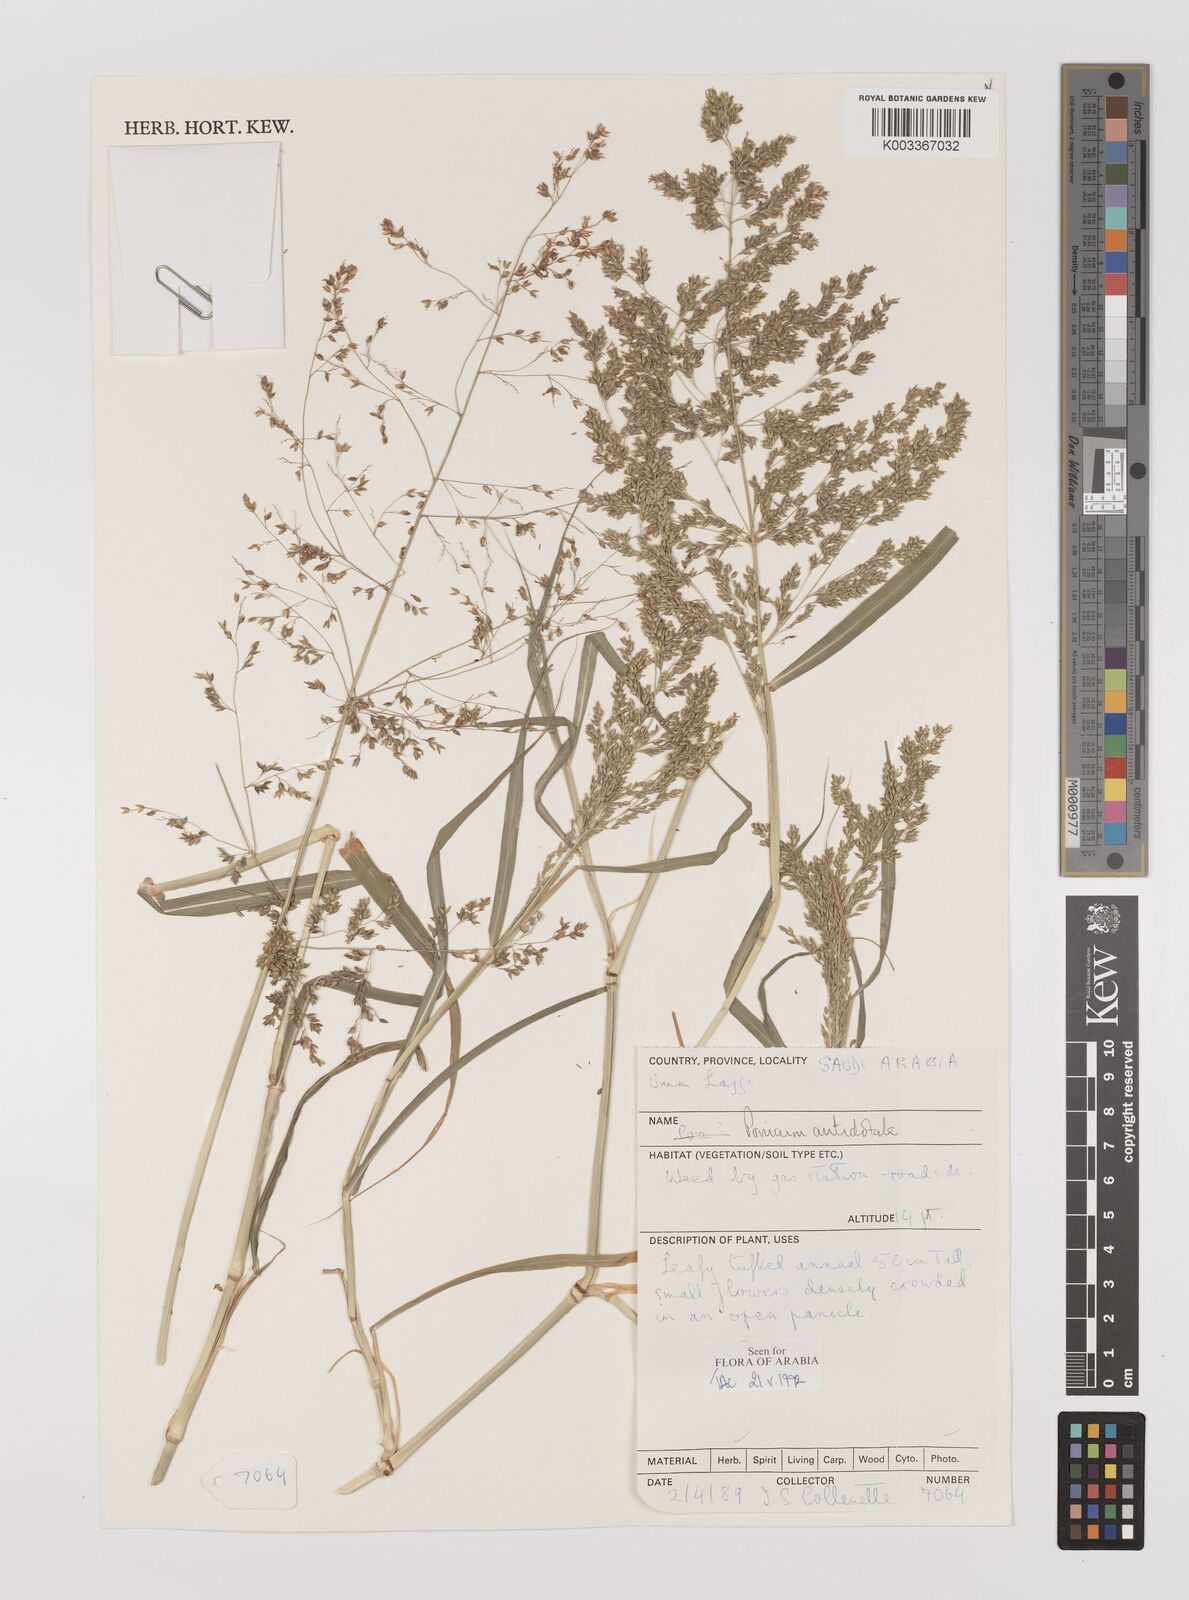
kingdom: Plantae
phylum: Tracheophyta
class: Liliopsida
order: Poales
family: Poaceae
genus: Panicum
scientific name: Panicum antidotale
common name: Blue panicum
